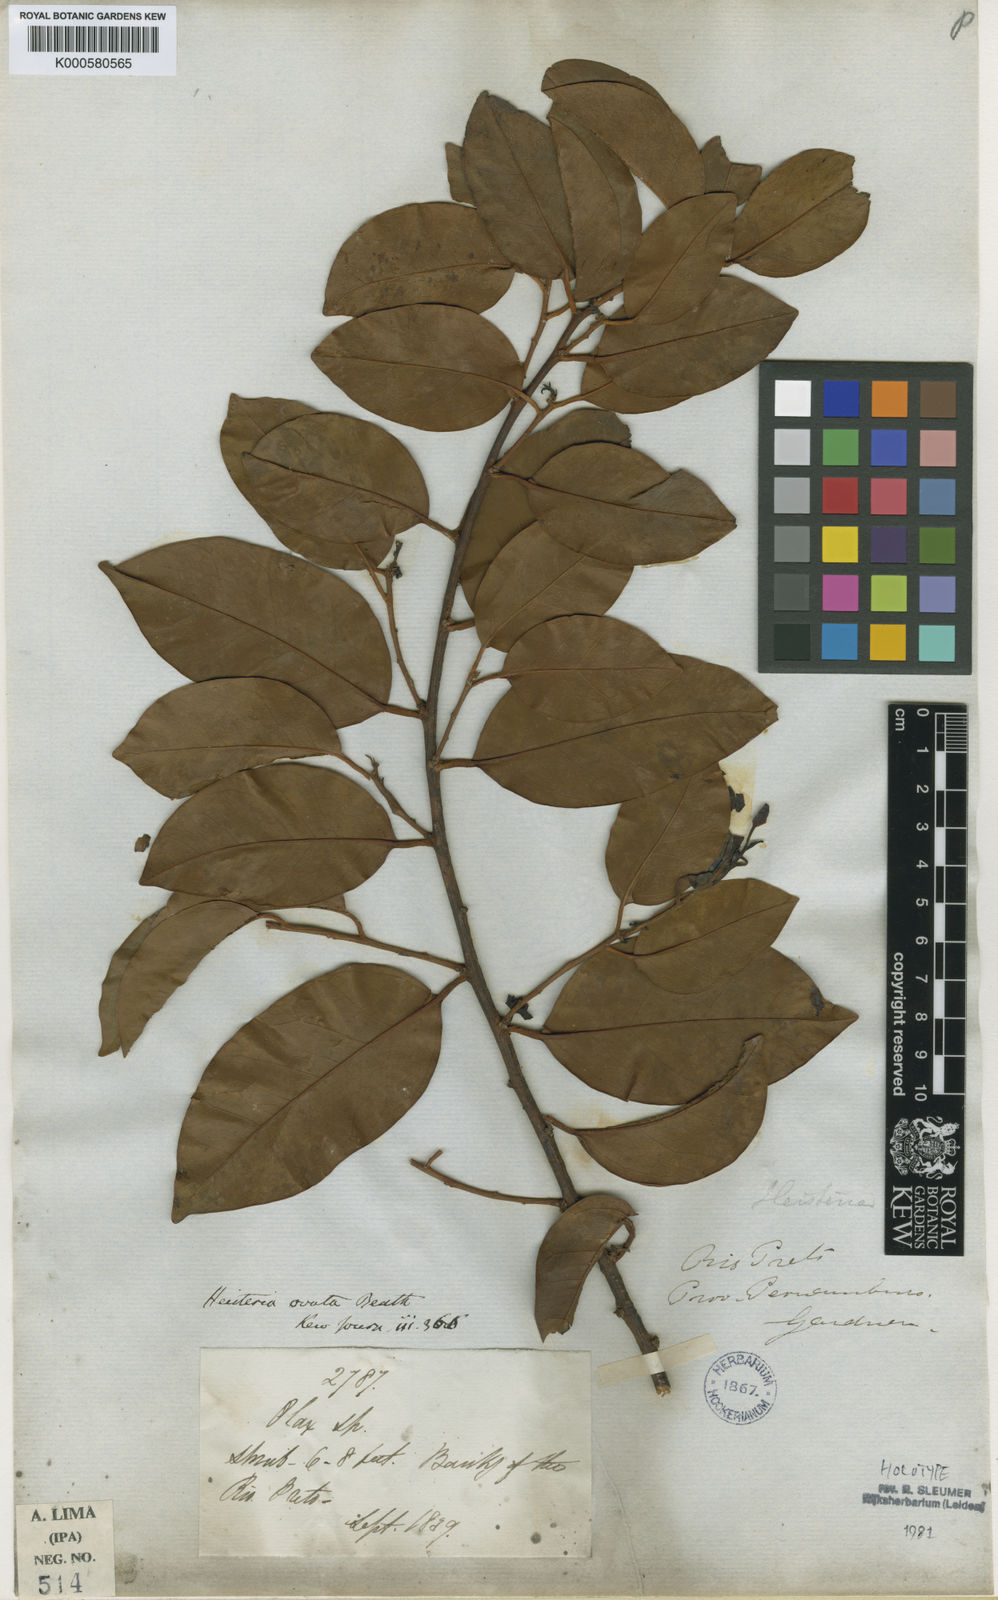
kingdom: Plantae
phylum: Tracheophyta
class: Magnoliopsida
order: Santalales
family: Erythropalaceae
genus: Heisteria
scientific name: Heisteria ovata
